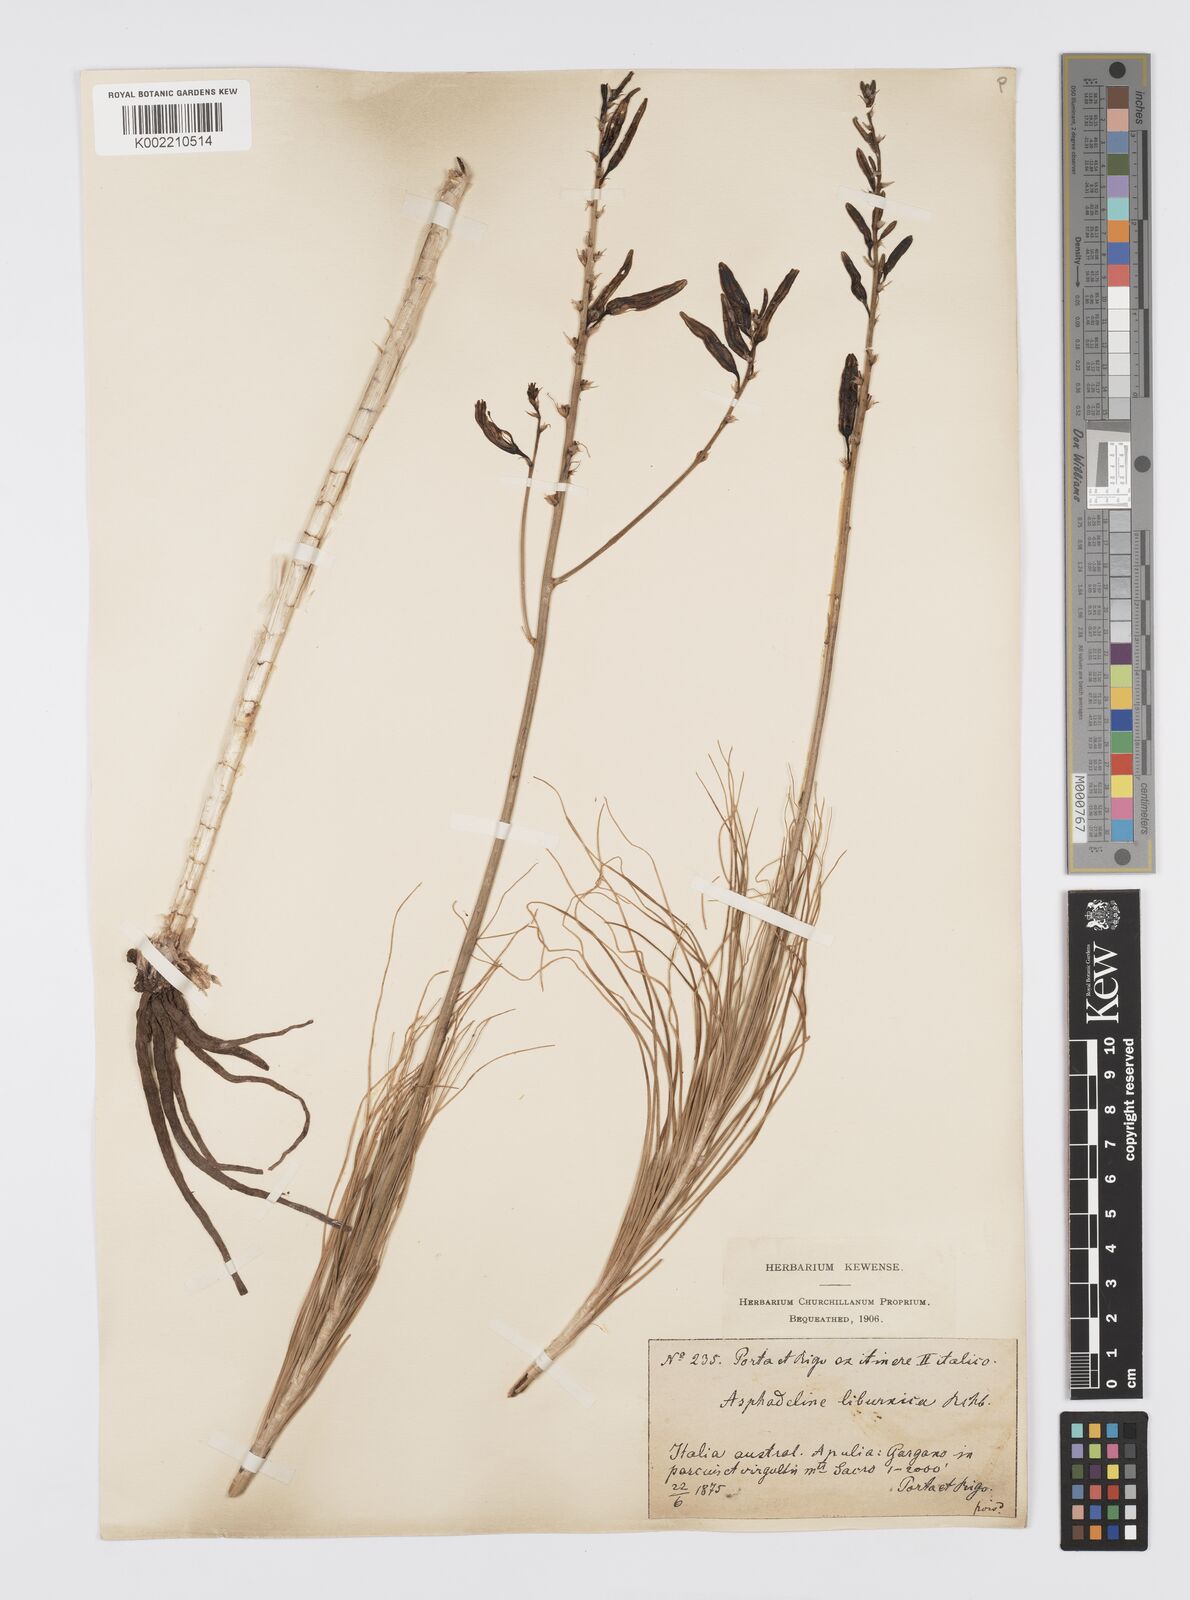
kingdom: Plantae
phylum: Tracheophyta
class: Liliopsida
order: Asparagales
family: Asphodelaceae
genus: Asphodeline
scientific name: Asphodeline liburnica
